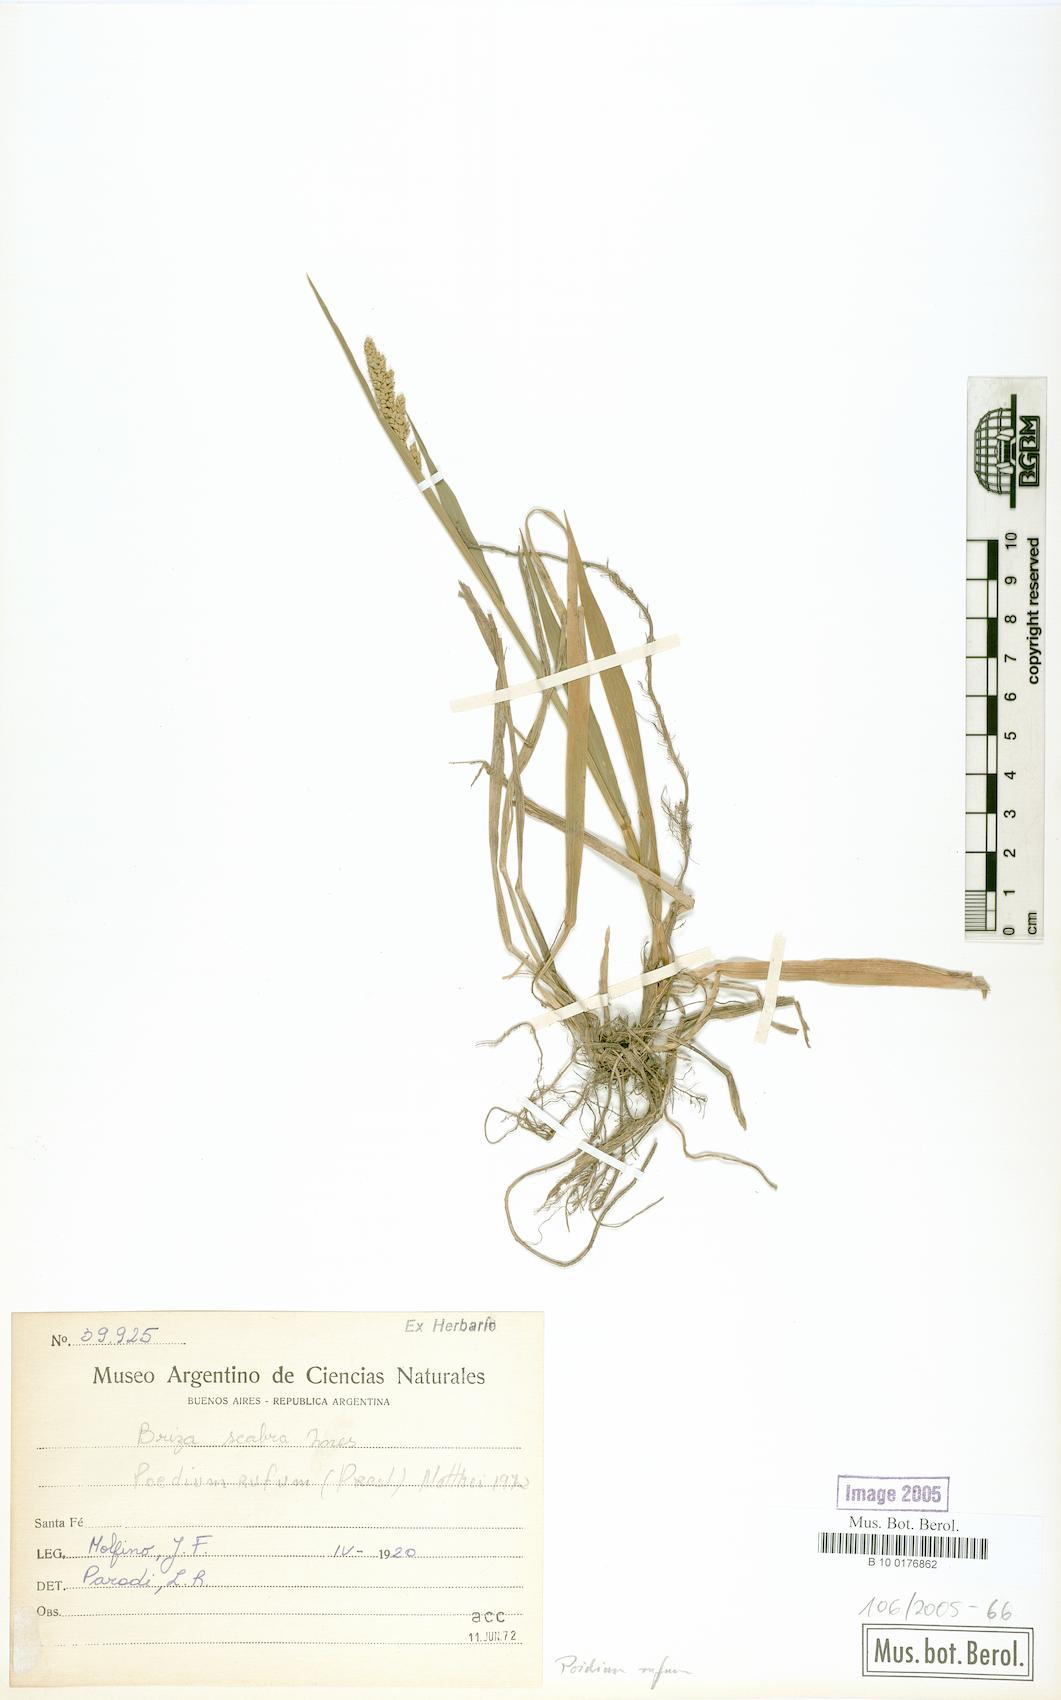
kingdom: Plantae
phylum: Tracheophyta
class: Liliopsida
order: Poales
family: Poaceae
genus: Lombardochloa
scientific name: Lombardochloa rufa
